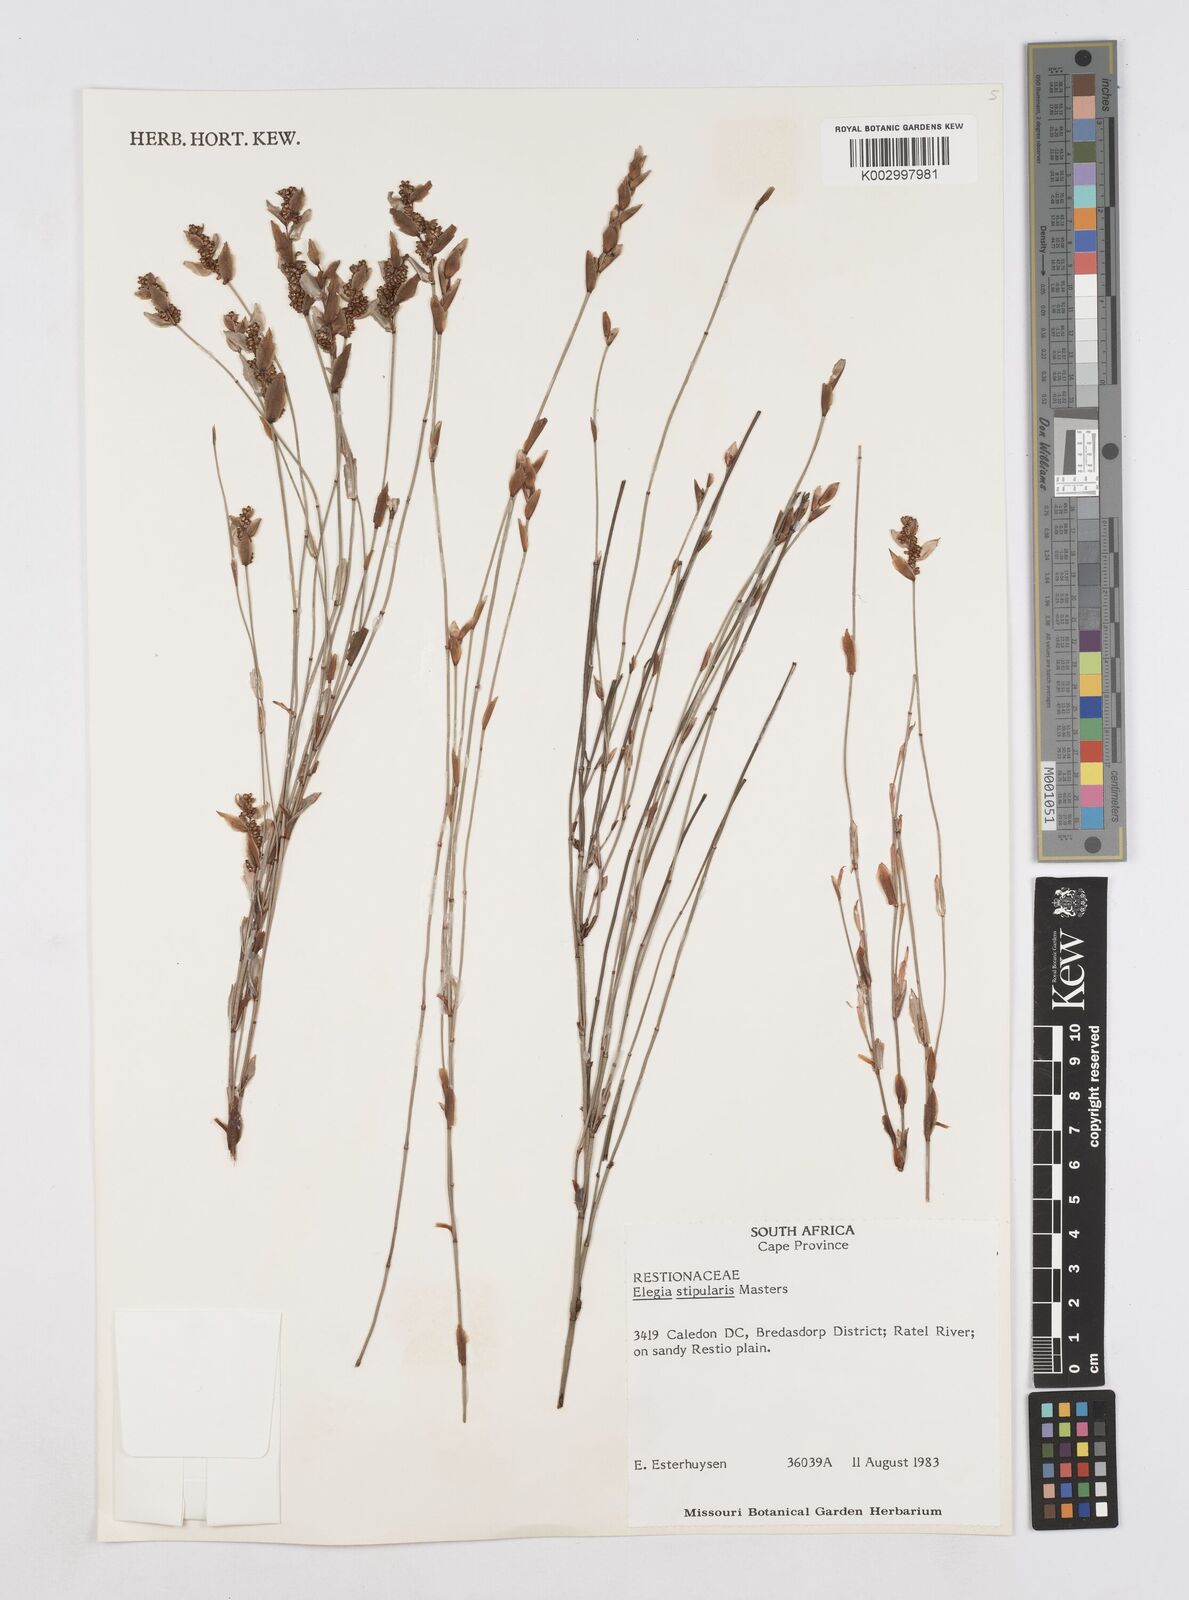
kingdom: Plantae
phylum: Tracheophyta
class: Liliopsida
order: Poales
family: Restionaceae
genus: Elegia
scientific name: Elegia stipularis
